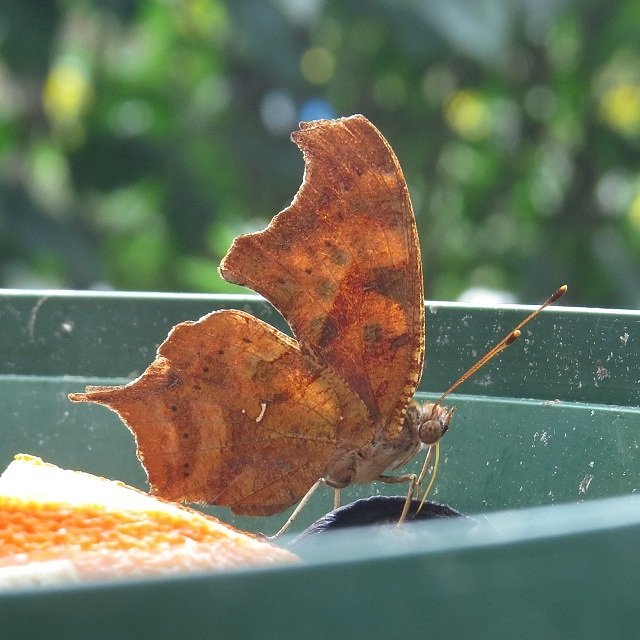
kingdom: Animalia
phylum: Arthropoda
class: Insecta
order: Lepidoptera
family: Nymphalidae
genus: Polygonia
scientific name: Polygonia interrogationis
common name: Question Mark
